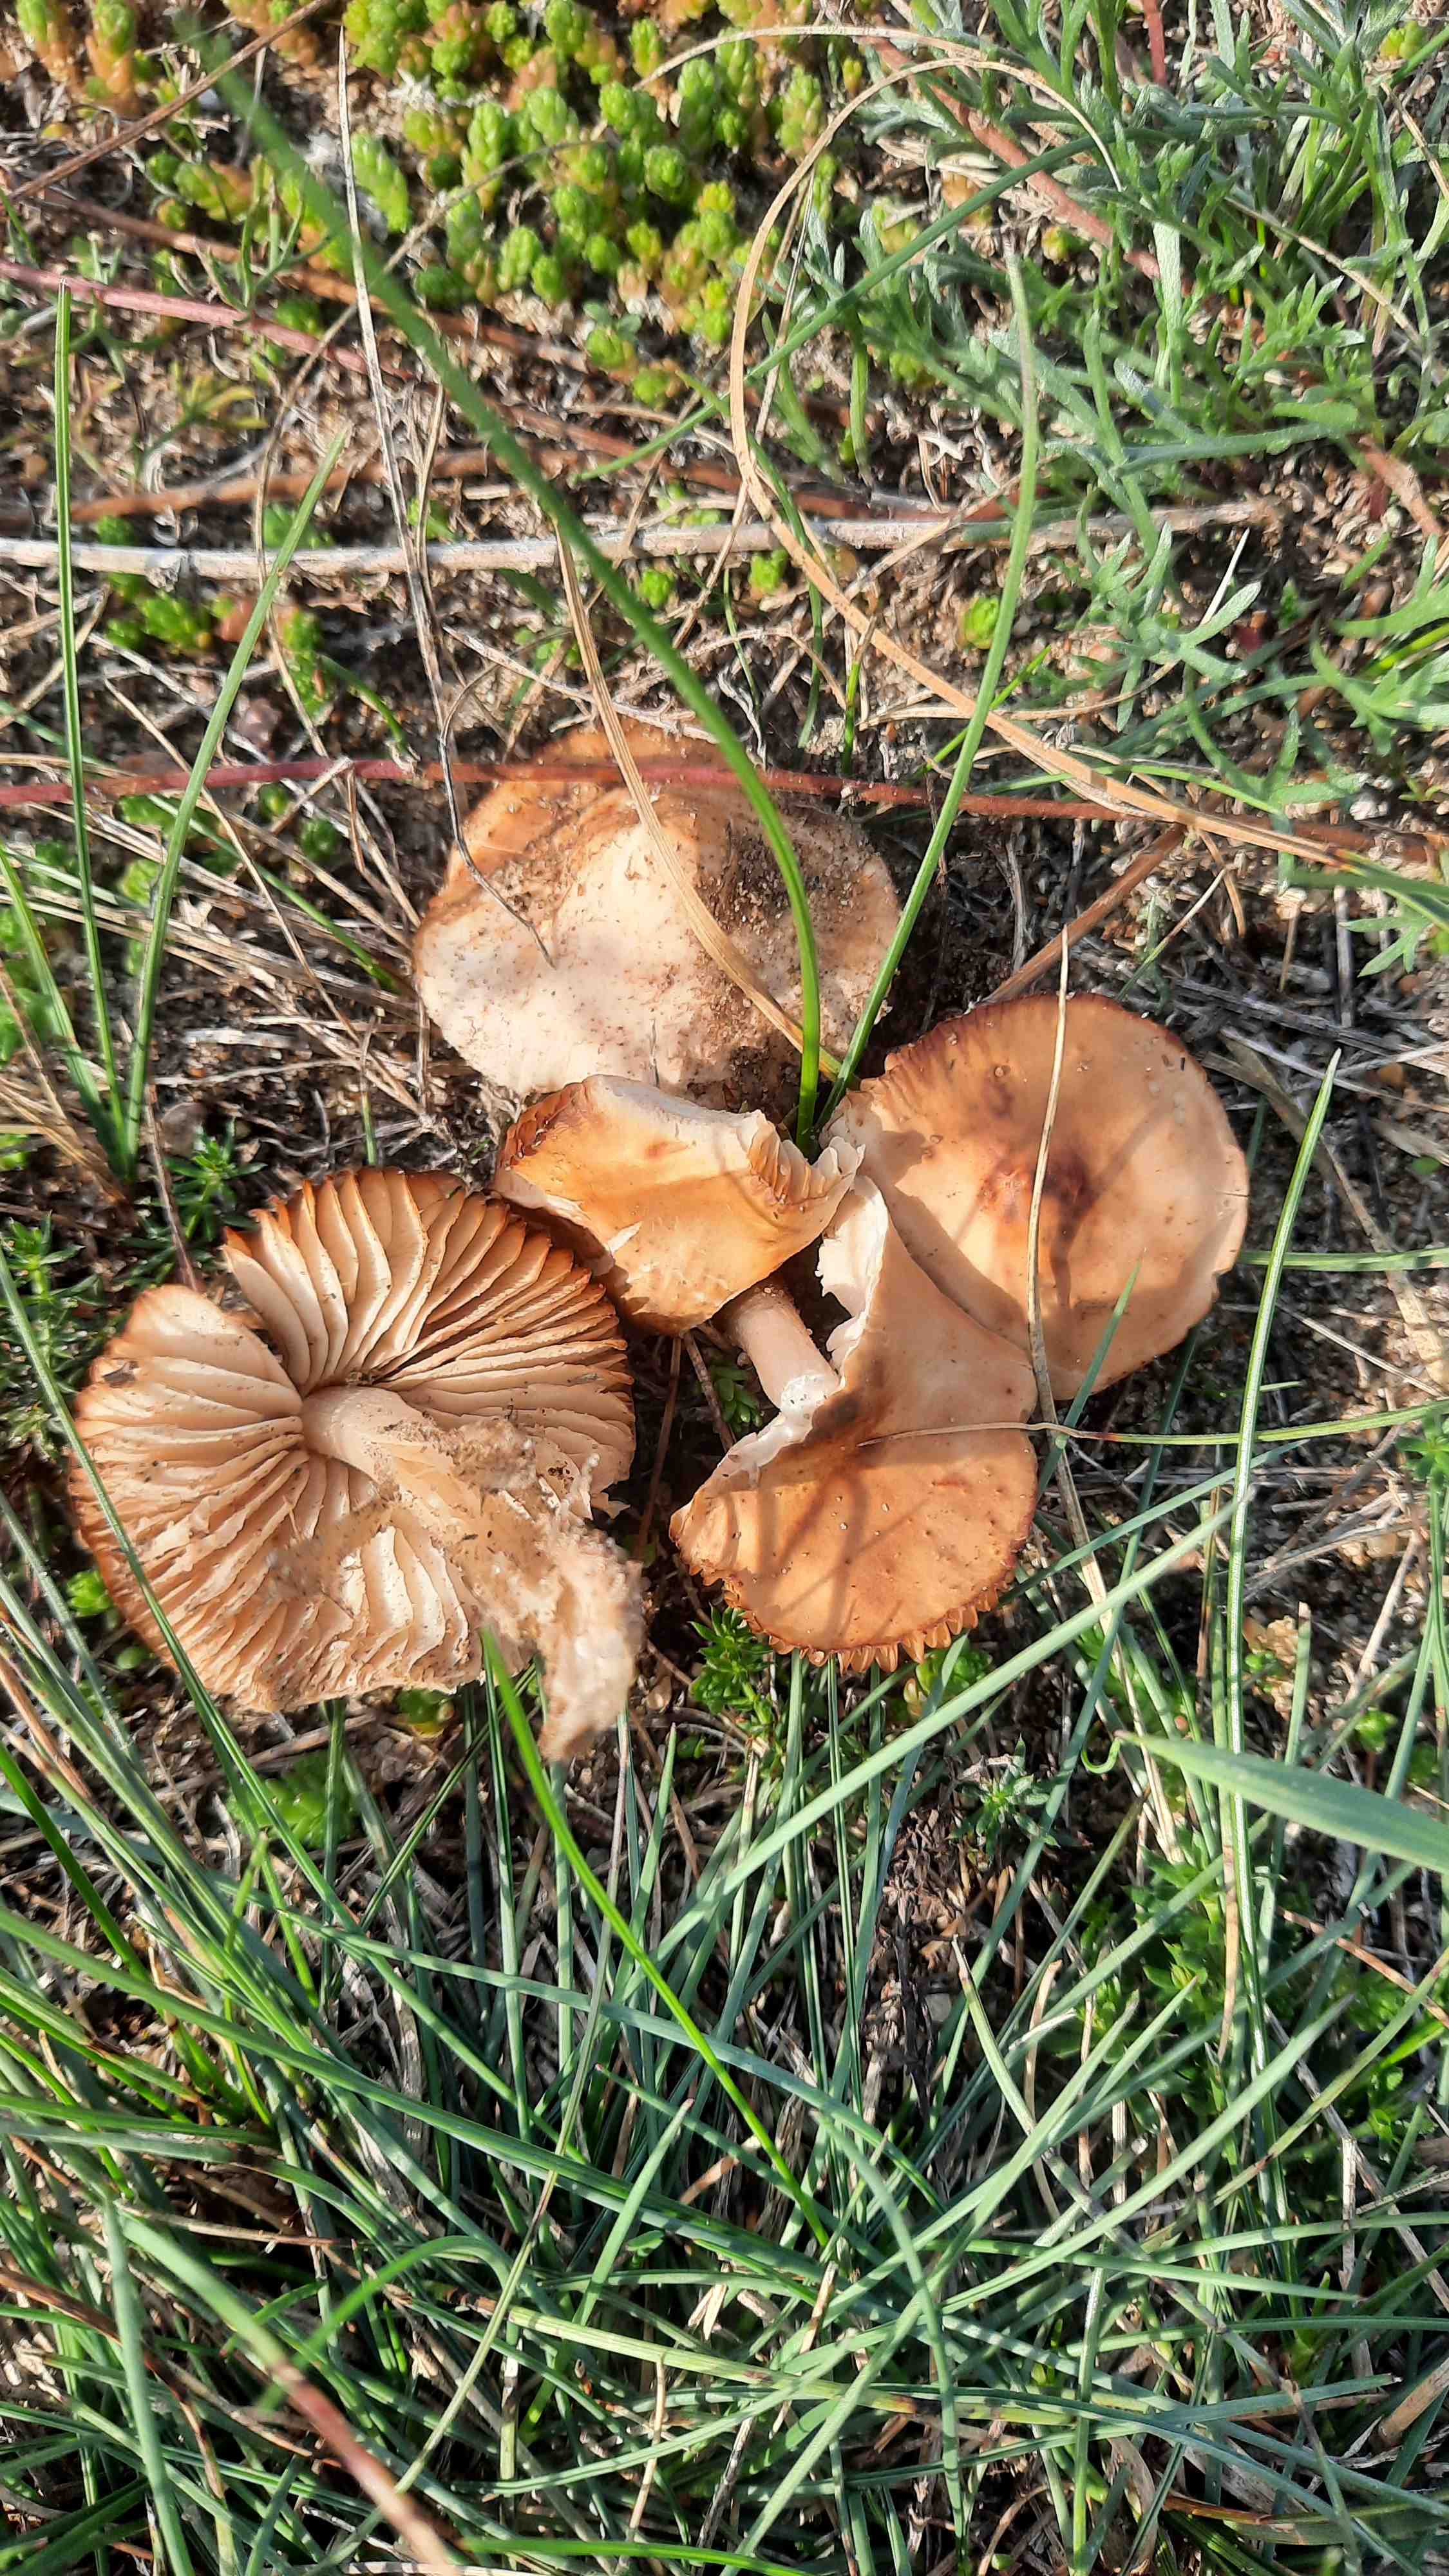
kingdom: Fungi
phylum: Basidiomycota
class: Agaricomycetes
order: Agaricales
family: Marasmiaceae
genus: Marasmius
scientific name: Marasmius oreades
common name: elledans-bruskhat
